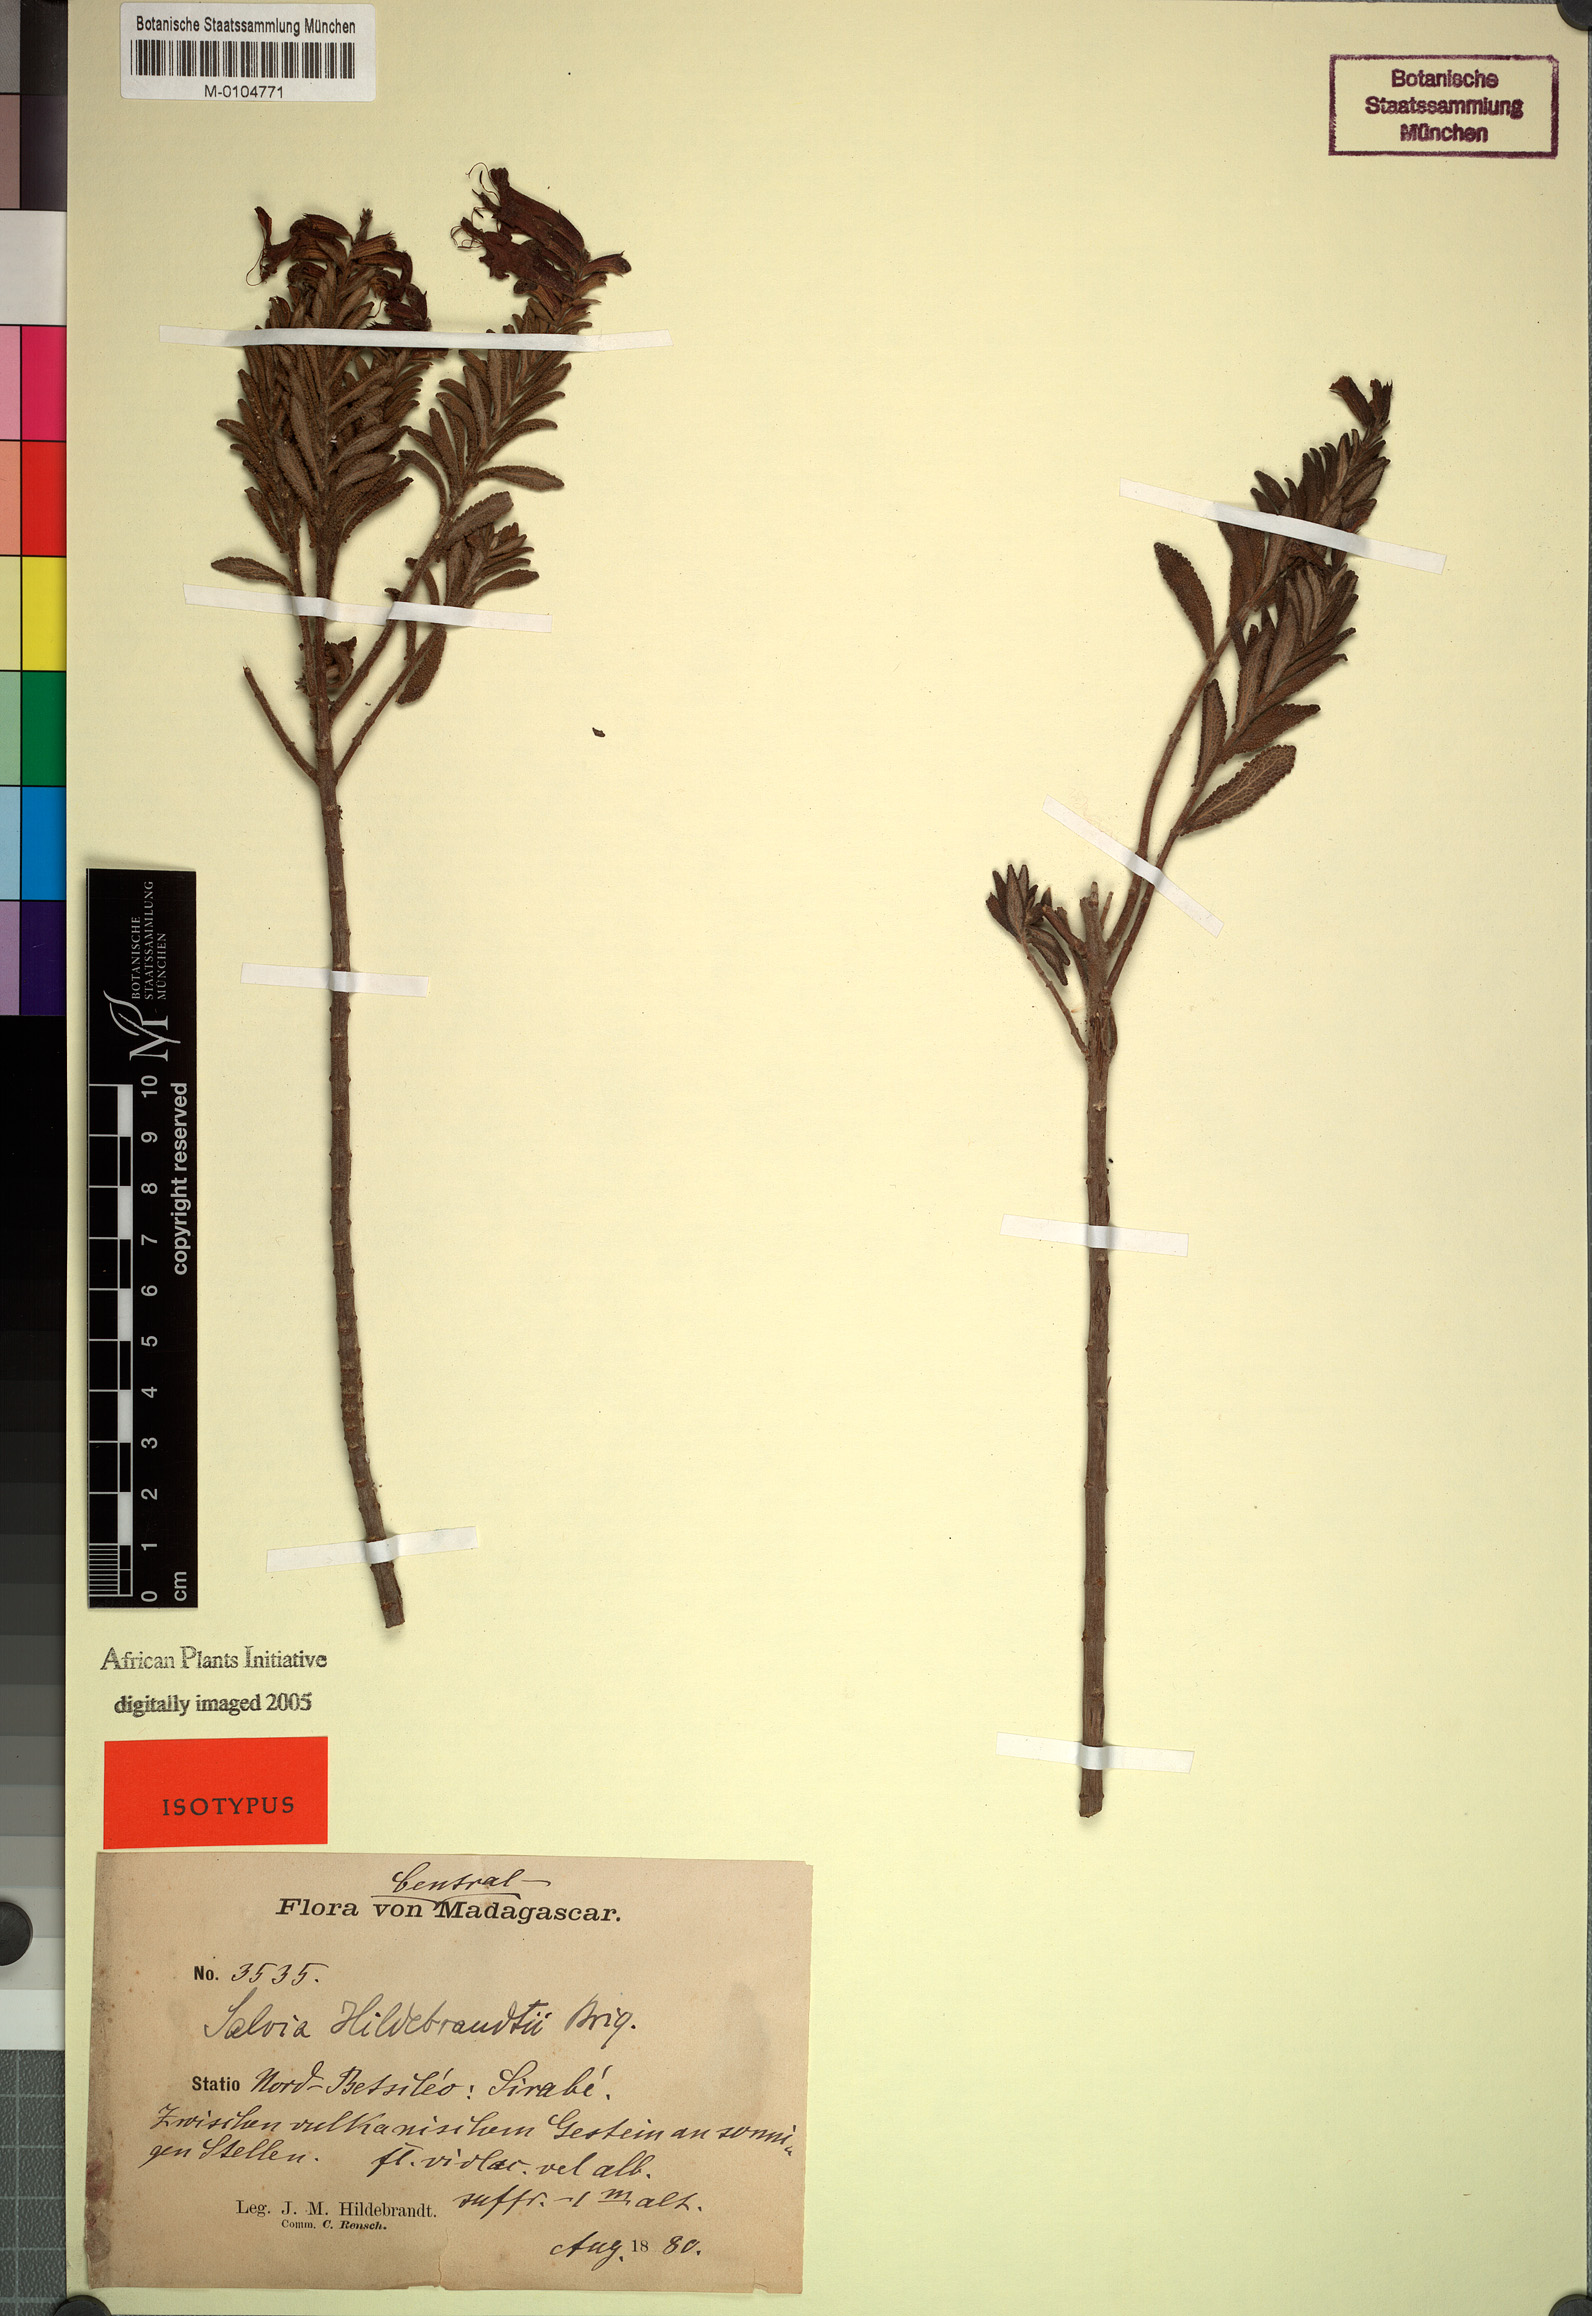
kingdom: Plantae
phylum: Tracheophyta
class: Magnoliopsida
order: Lamiales
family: Lamiaceae
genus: Salvia
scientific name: Salvia sessilifolia
